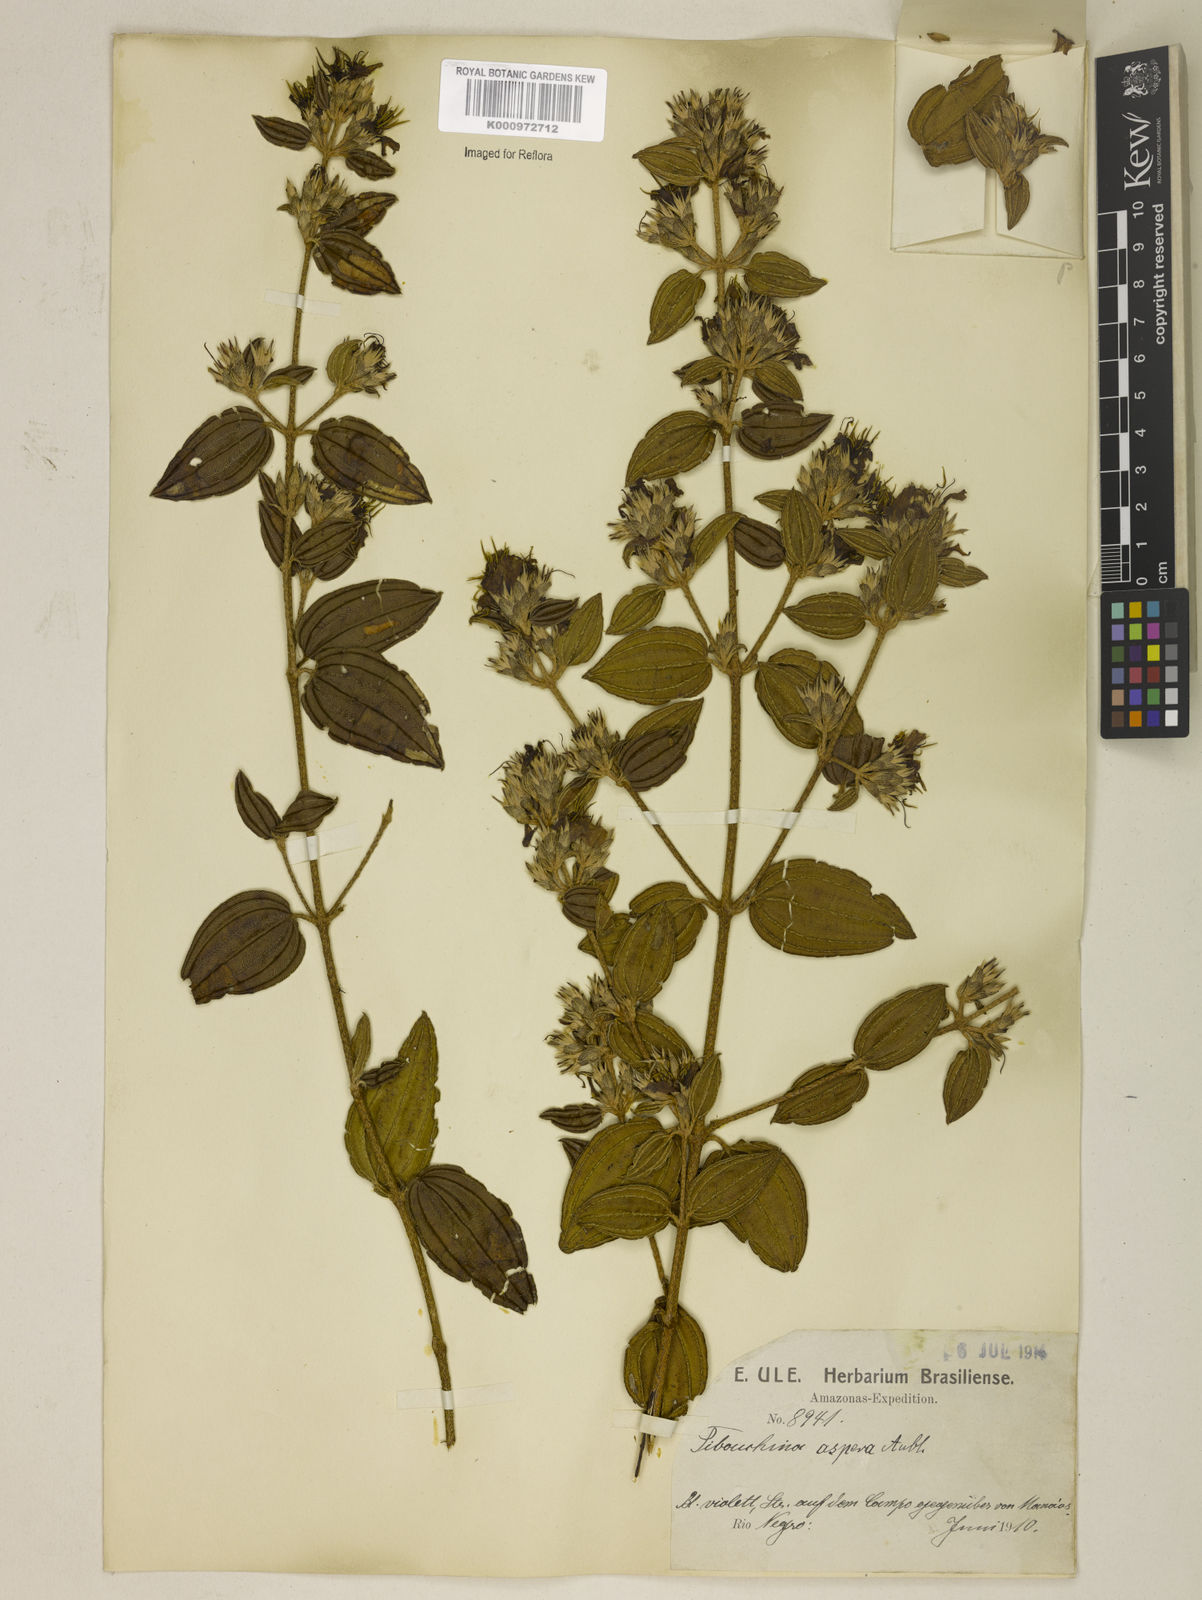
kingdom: Plantae
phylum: Tracheophyta
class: Magnoliopsida
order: Myrtales
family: Melastomataceae
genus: Tibouchina
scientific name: Tibouchina aspera
